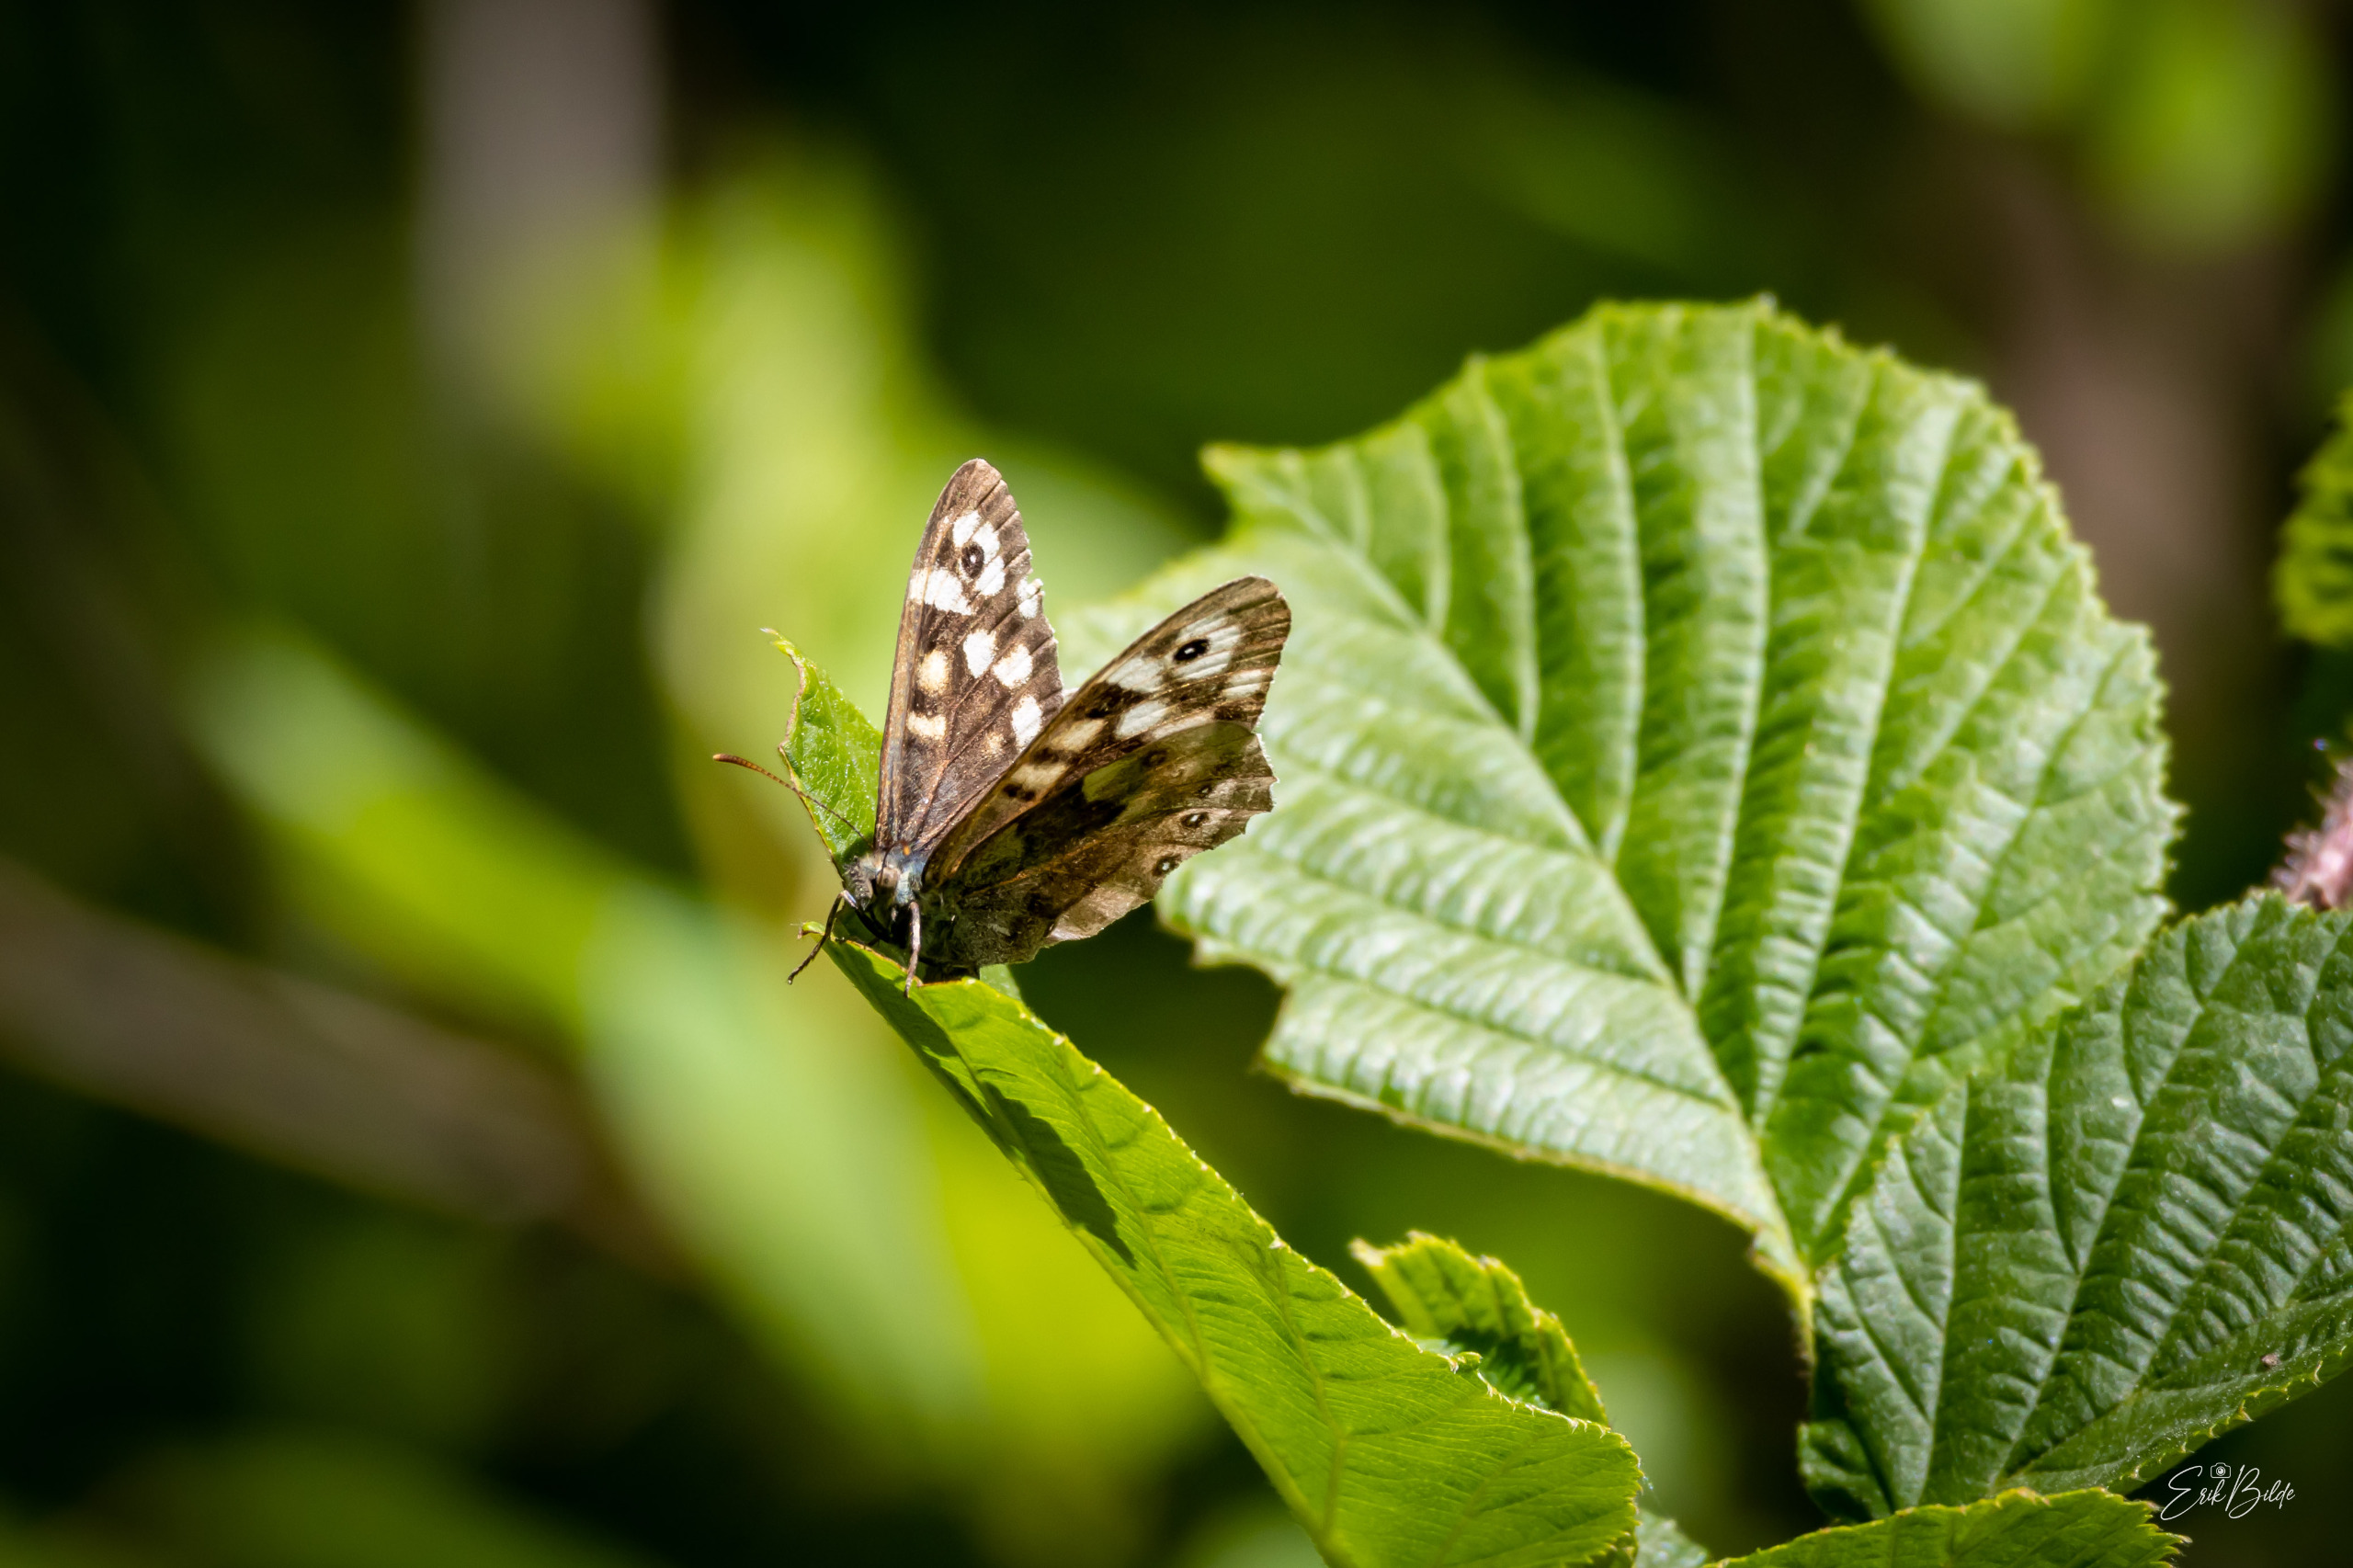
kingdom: Animalia
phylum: Arthropoda
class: Insecta
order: Lepidoptera
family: Nymphalidae
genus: Pararge
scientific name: Pararge aegeria
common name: Skovrandøje
